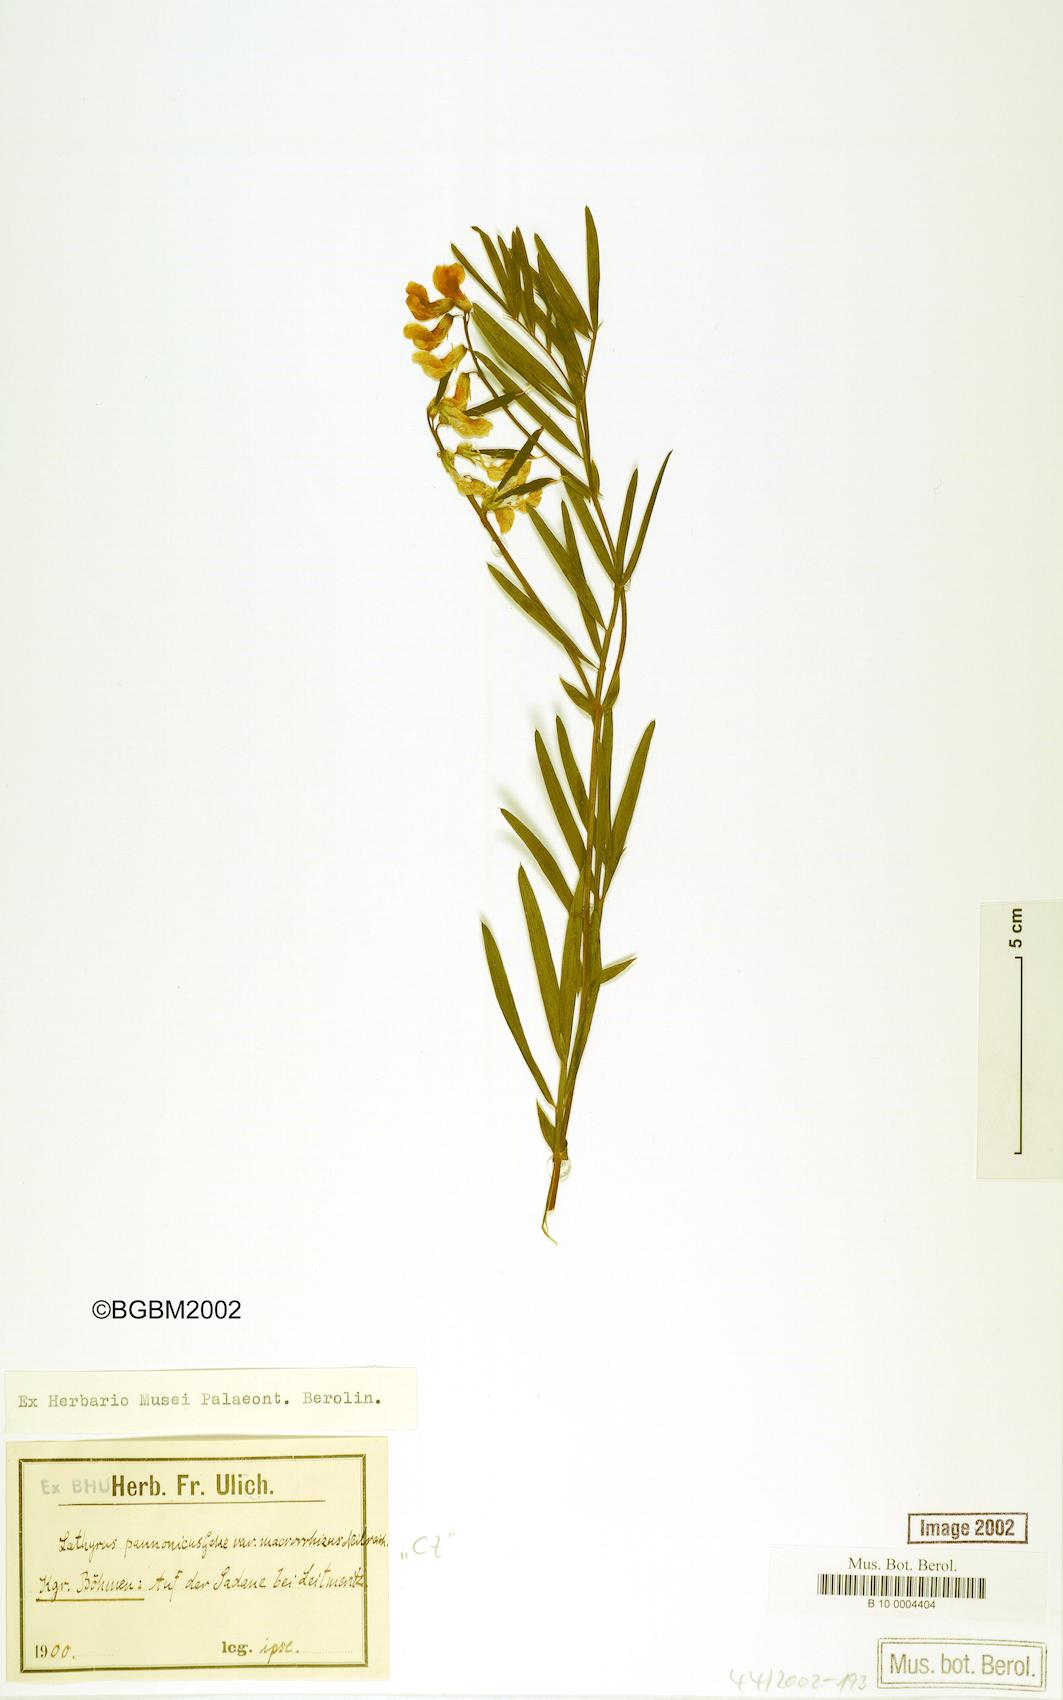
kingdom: Plantae
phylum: Tracheophyta
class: Magnoliopsida
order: Fabales
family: Fabaceae
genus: Lathyrus
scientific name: Lathyrus pannonicus
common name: Pea
